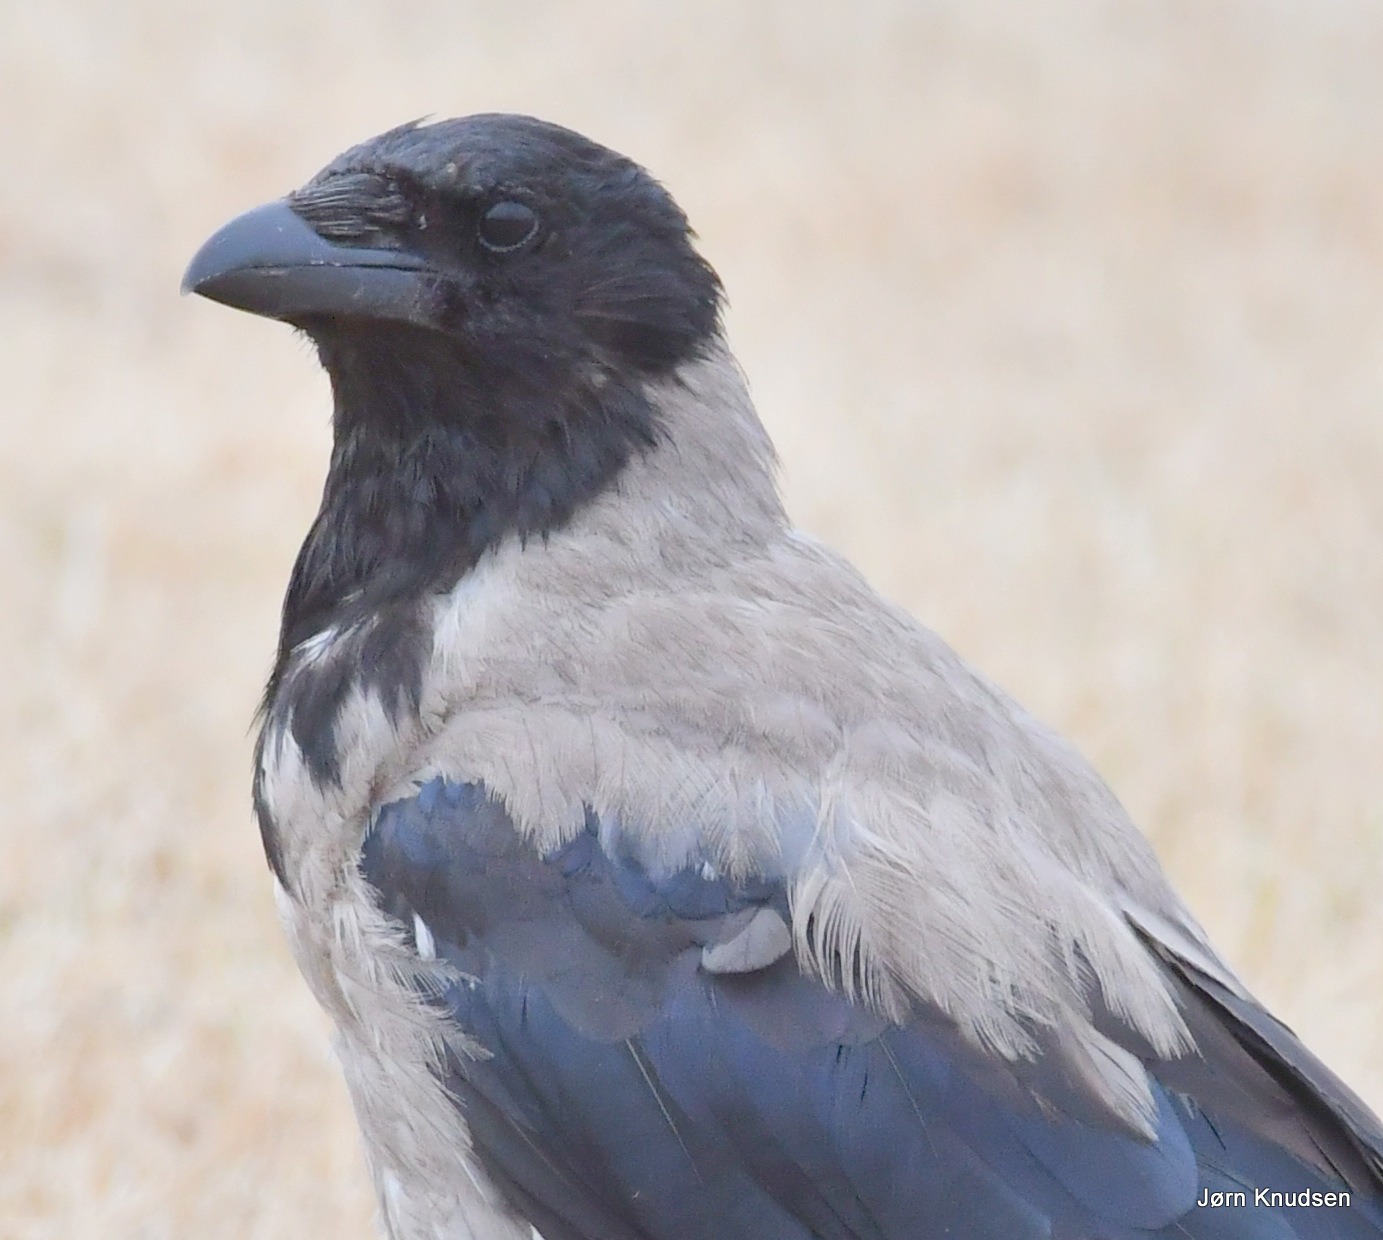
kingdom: Animalia
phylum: Chordata
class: Aves
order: Passeriformes
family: Corvidae
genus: Corvus
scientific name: Corvus cornix
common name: Gråkrage
